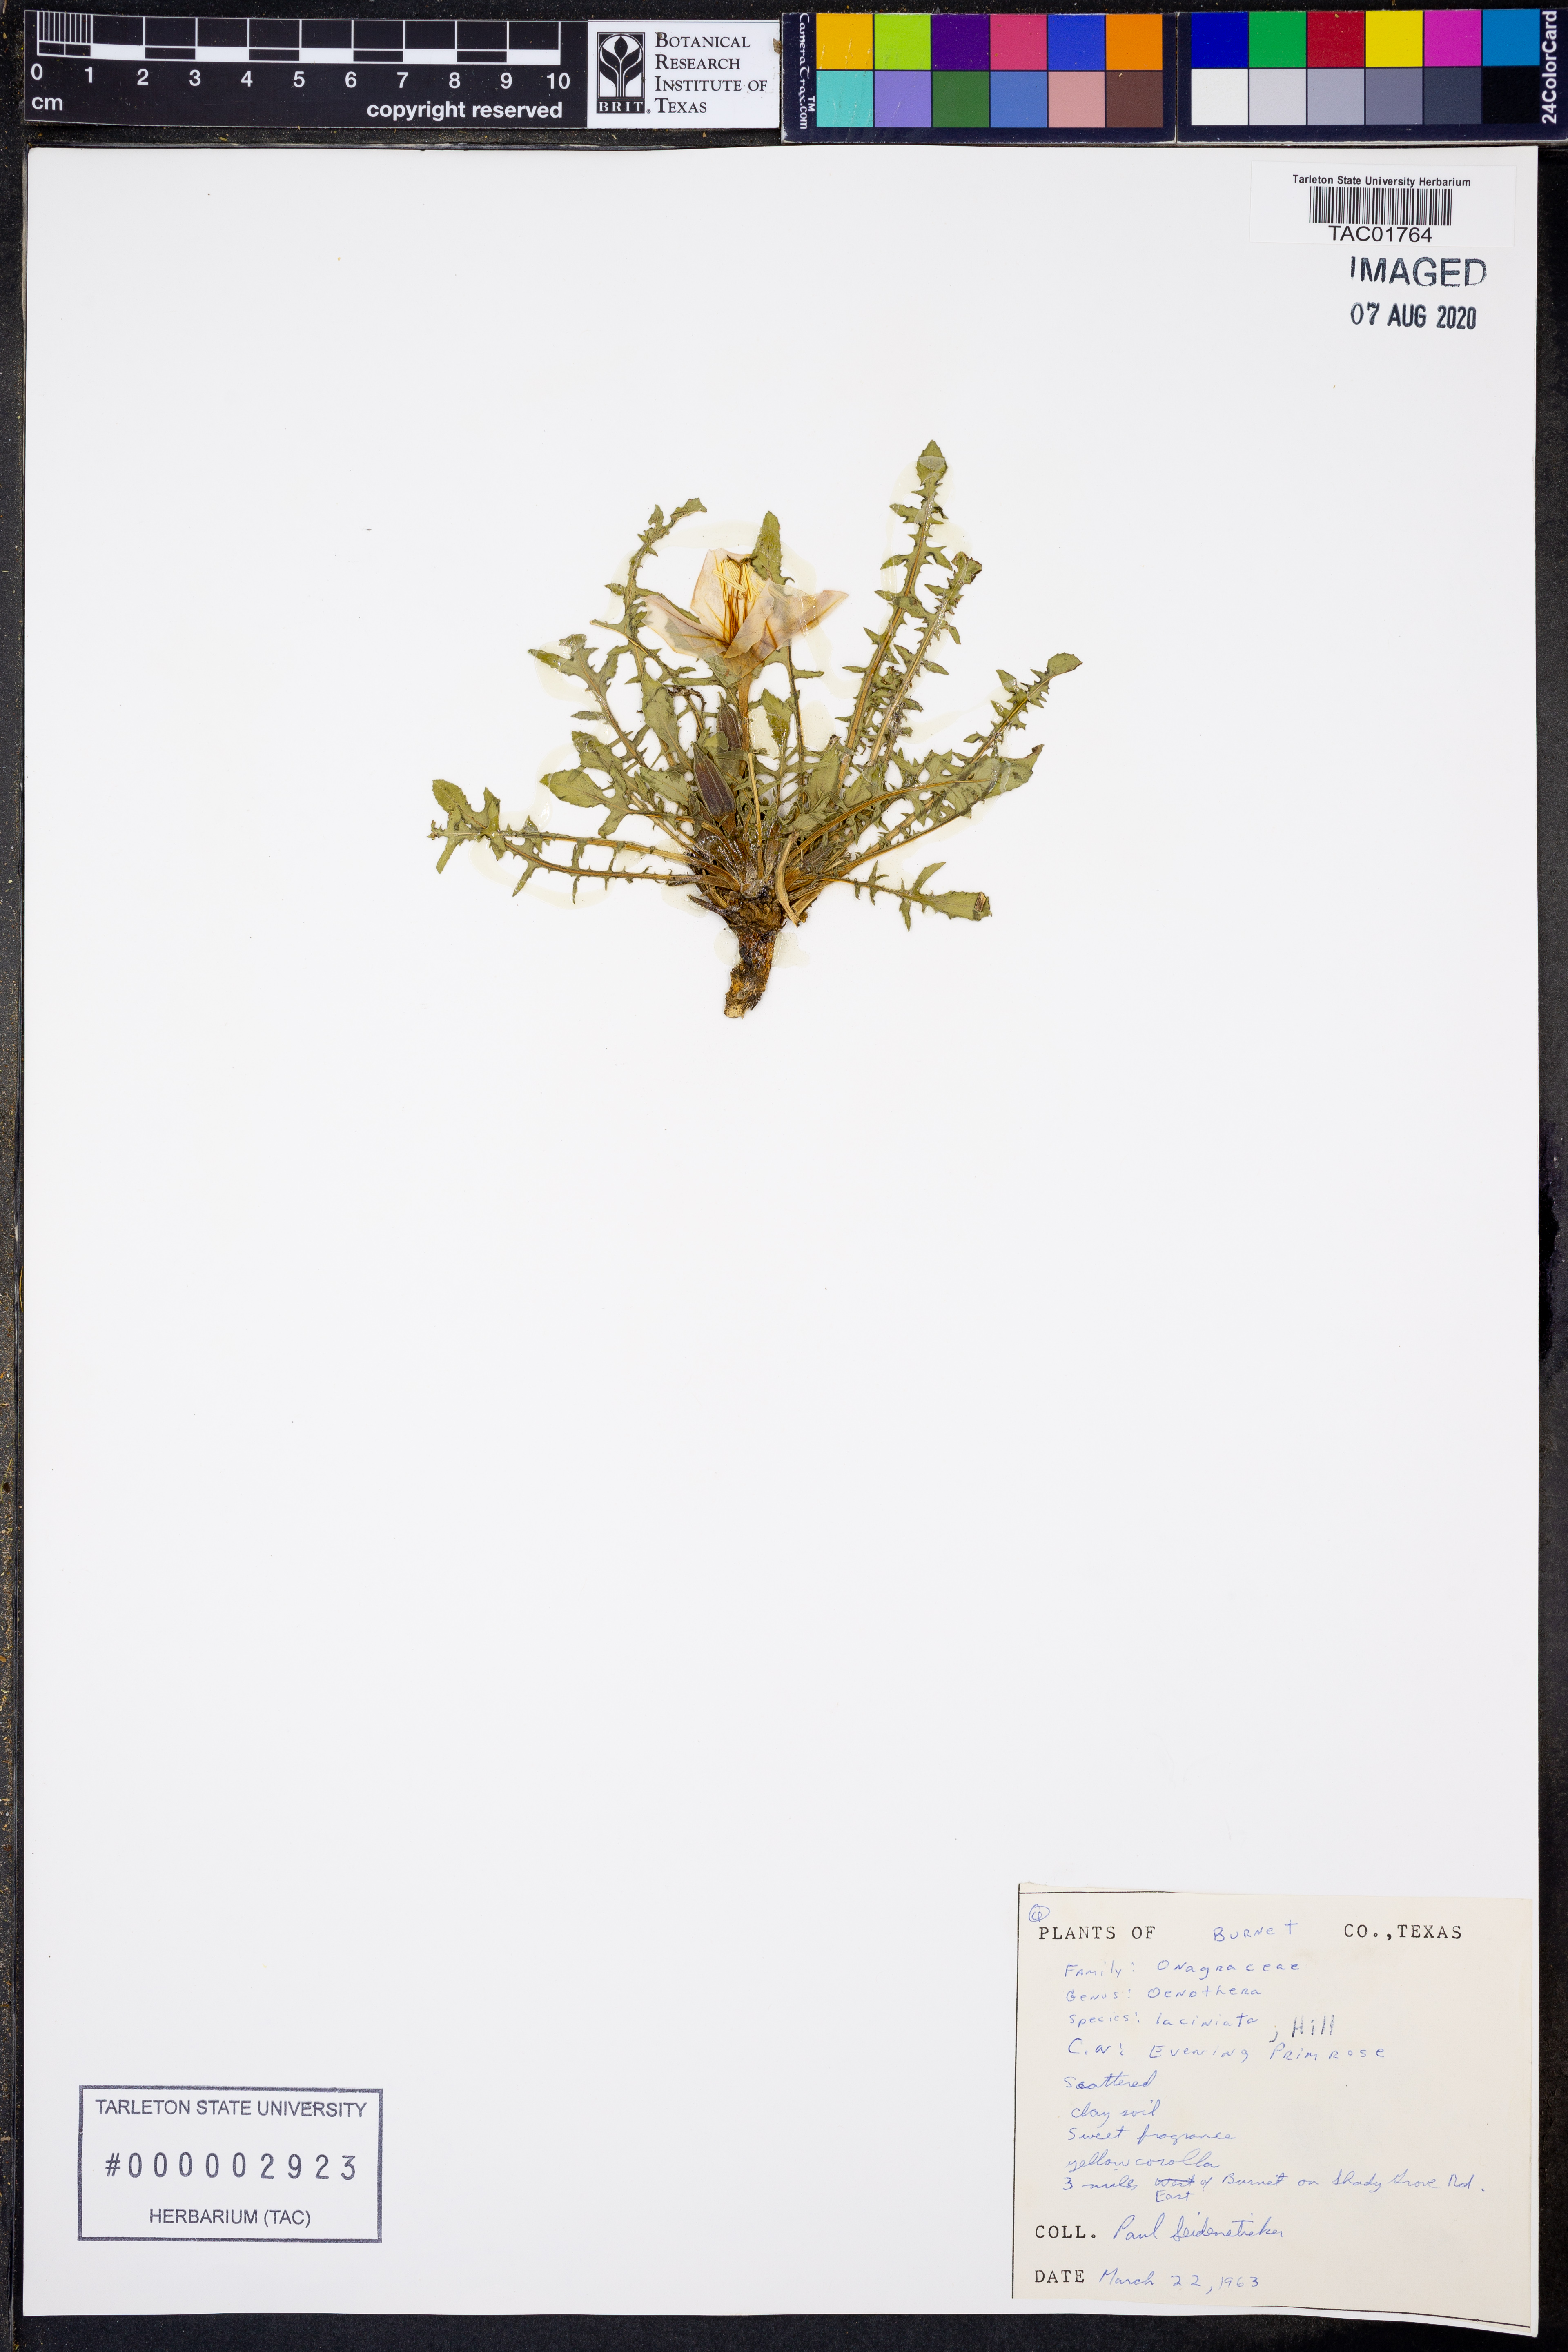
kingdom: Plantae
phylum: Tracheophyta
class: Magnoliopsida
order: Myrtales
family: Onagraceae
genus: Oenothera
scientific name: Oenothera laciniata
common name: Cut-leaved evening-primrose
